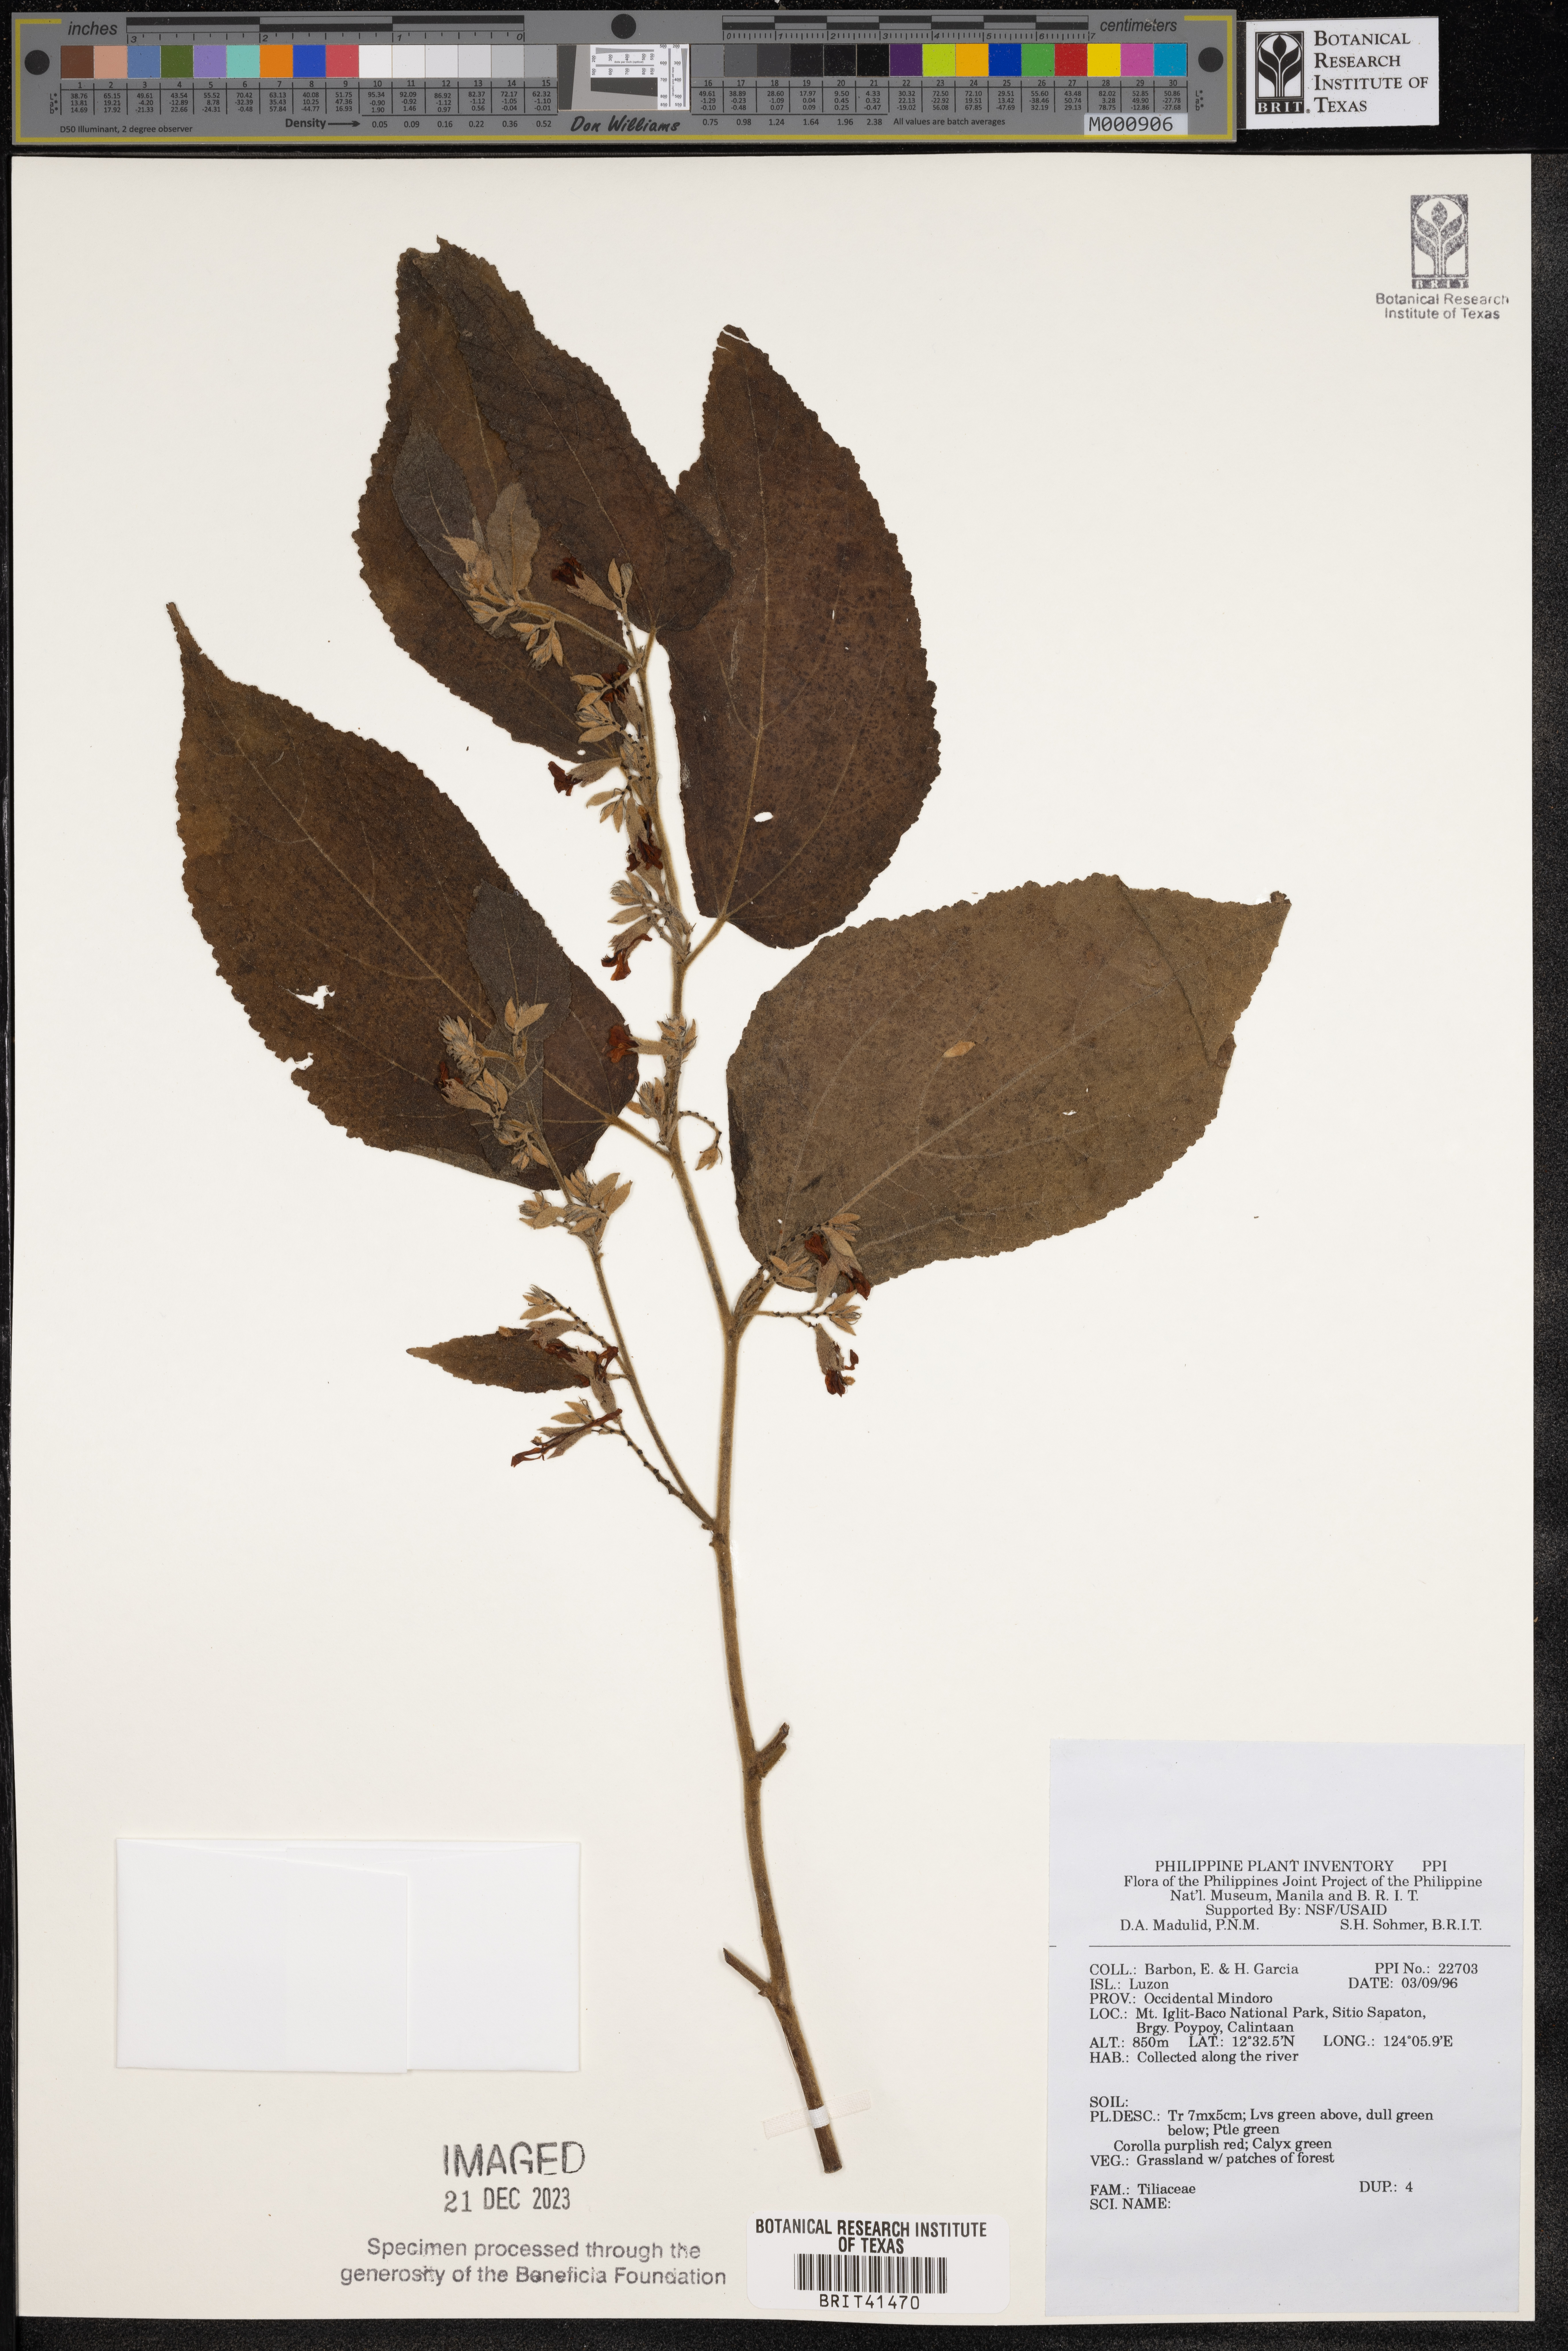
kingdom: Plantae
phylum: Tracheophyta
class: Magnoliopsida
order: Malvales
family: Tiliaceae
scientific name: Tiliaceae
